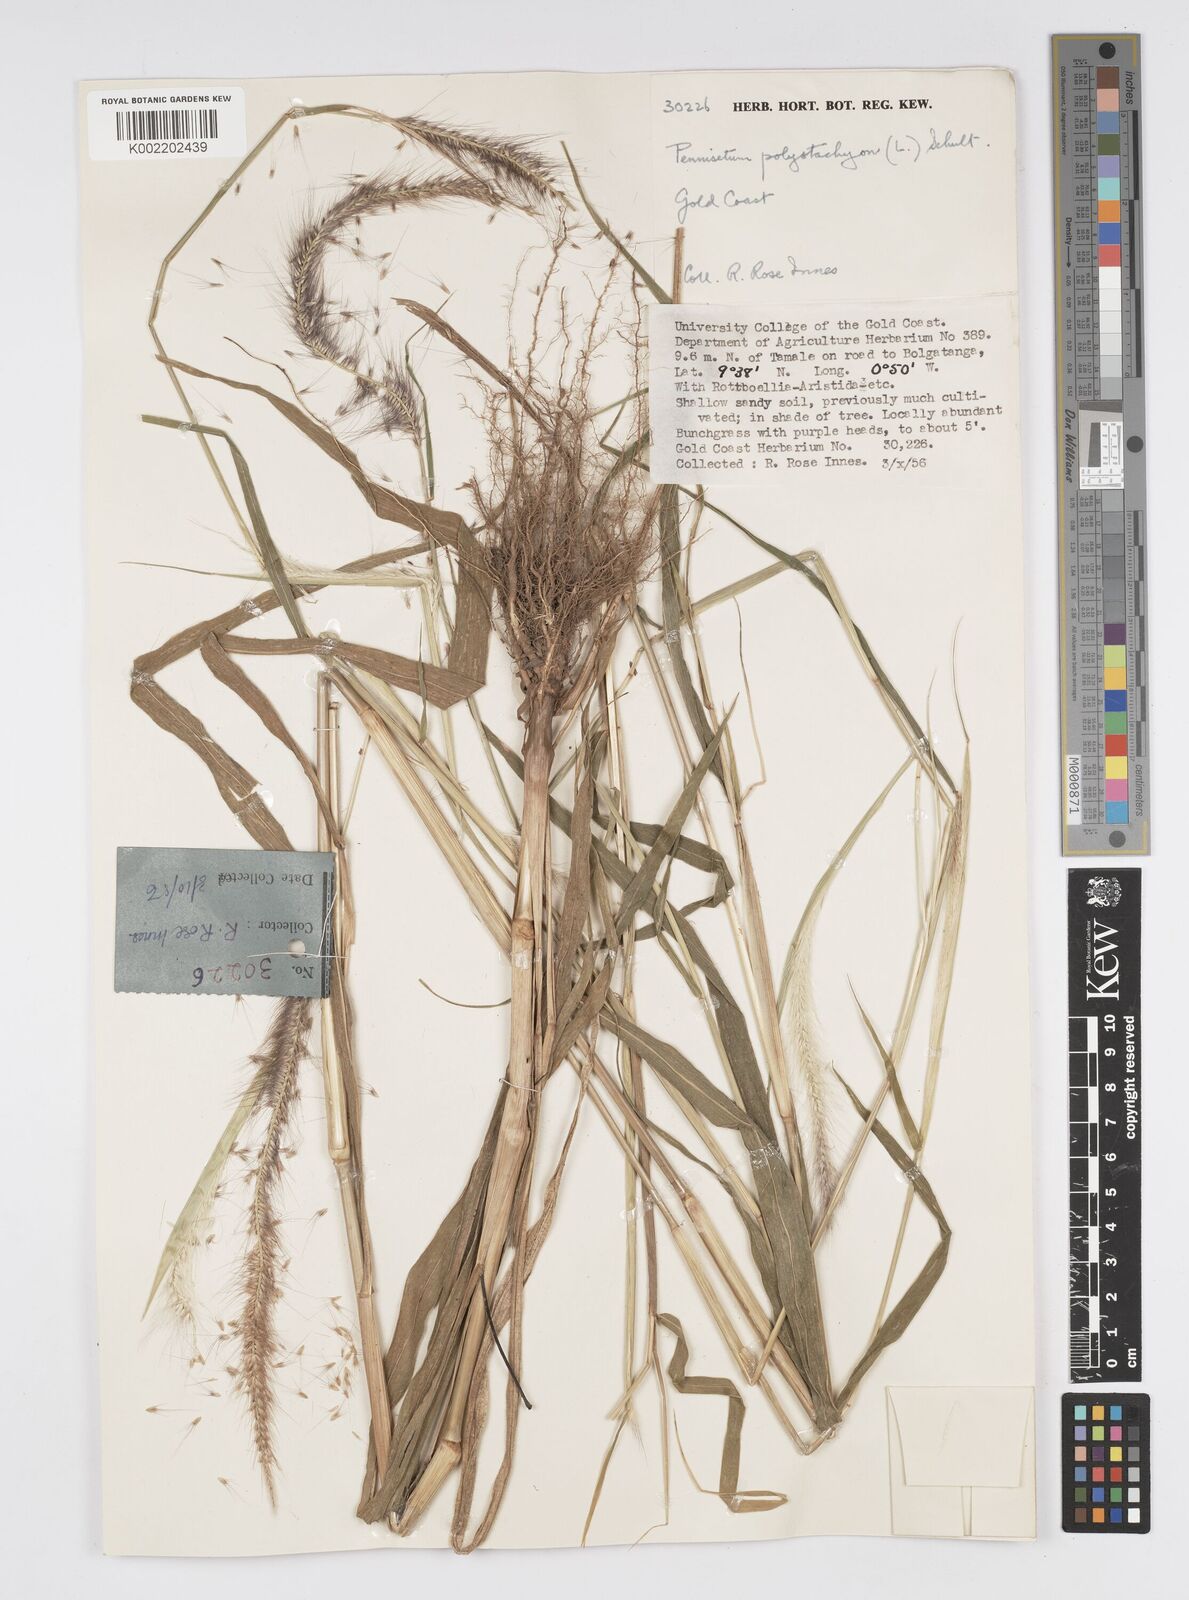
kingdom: Plantae
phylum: Tracheophyta
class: Liliopsida
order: Poales
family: Poaceae
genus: Setaria
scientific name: Setaria parviflora
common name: Knotroot bristle-grass
